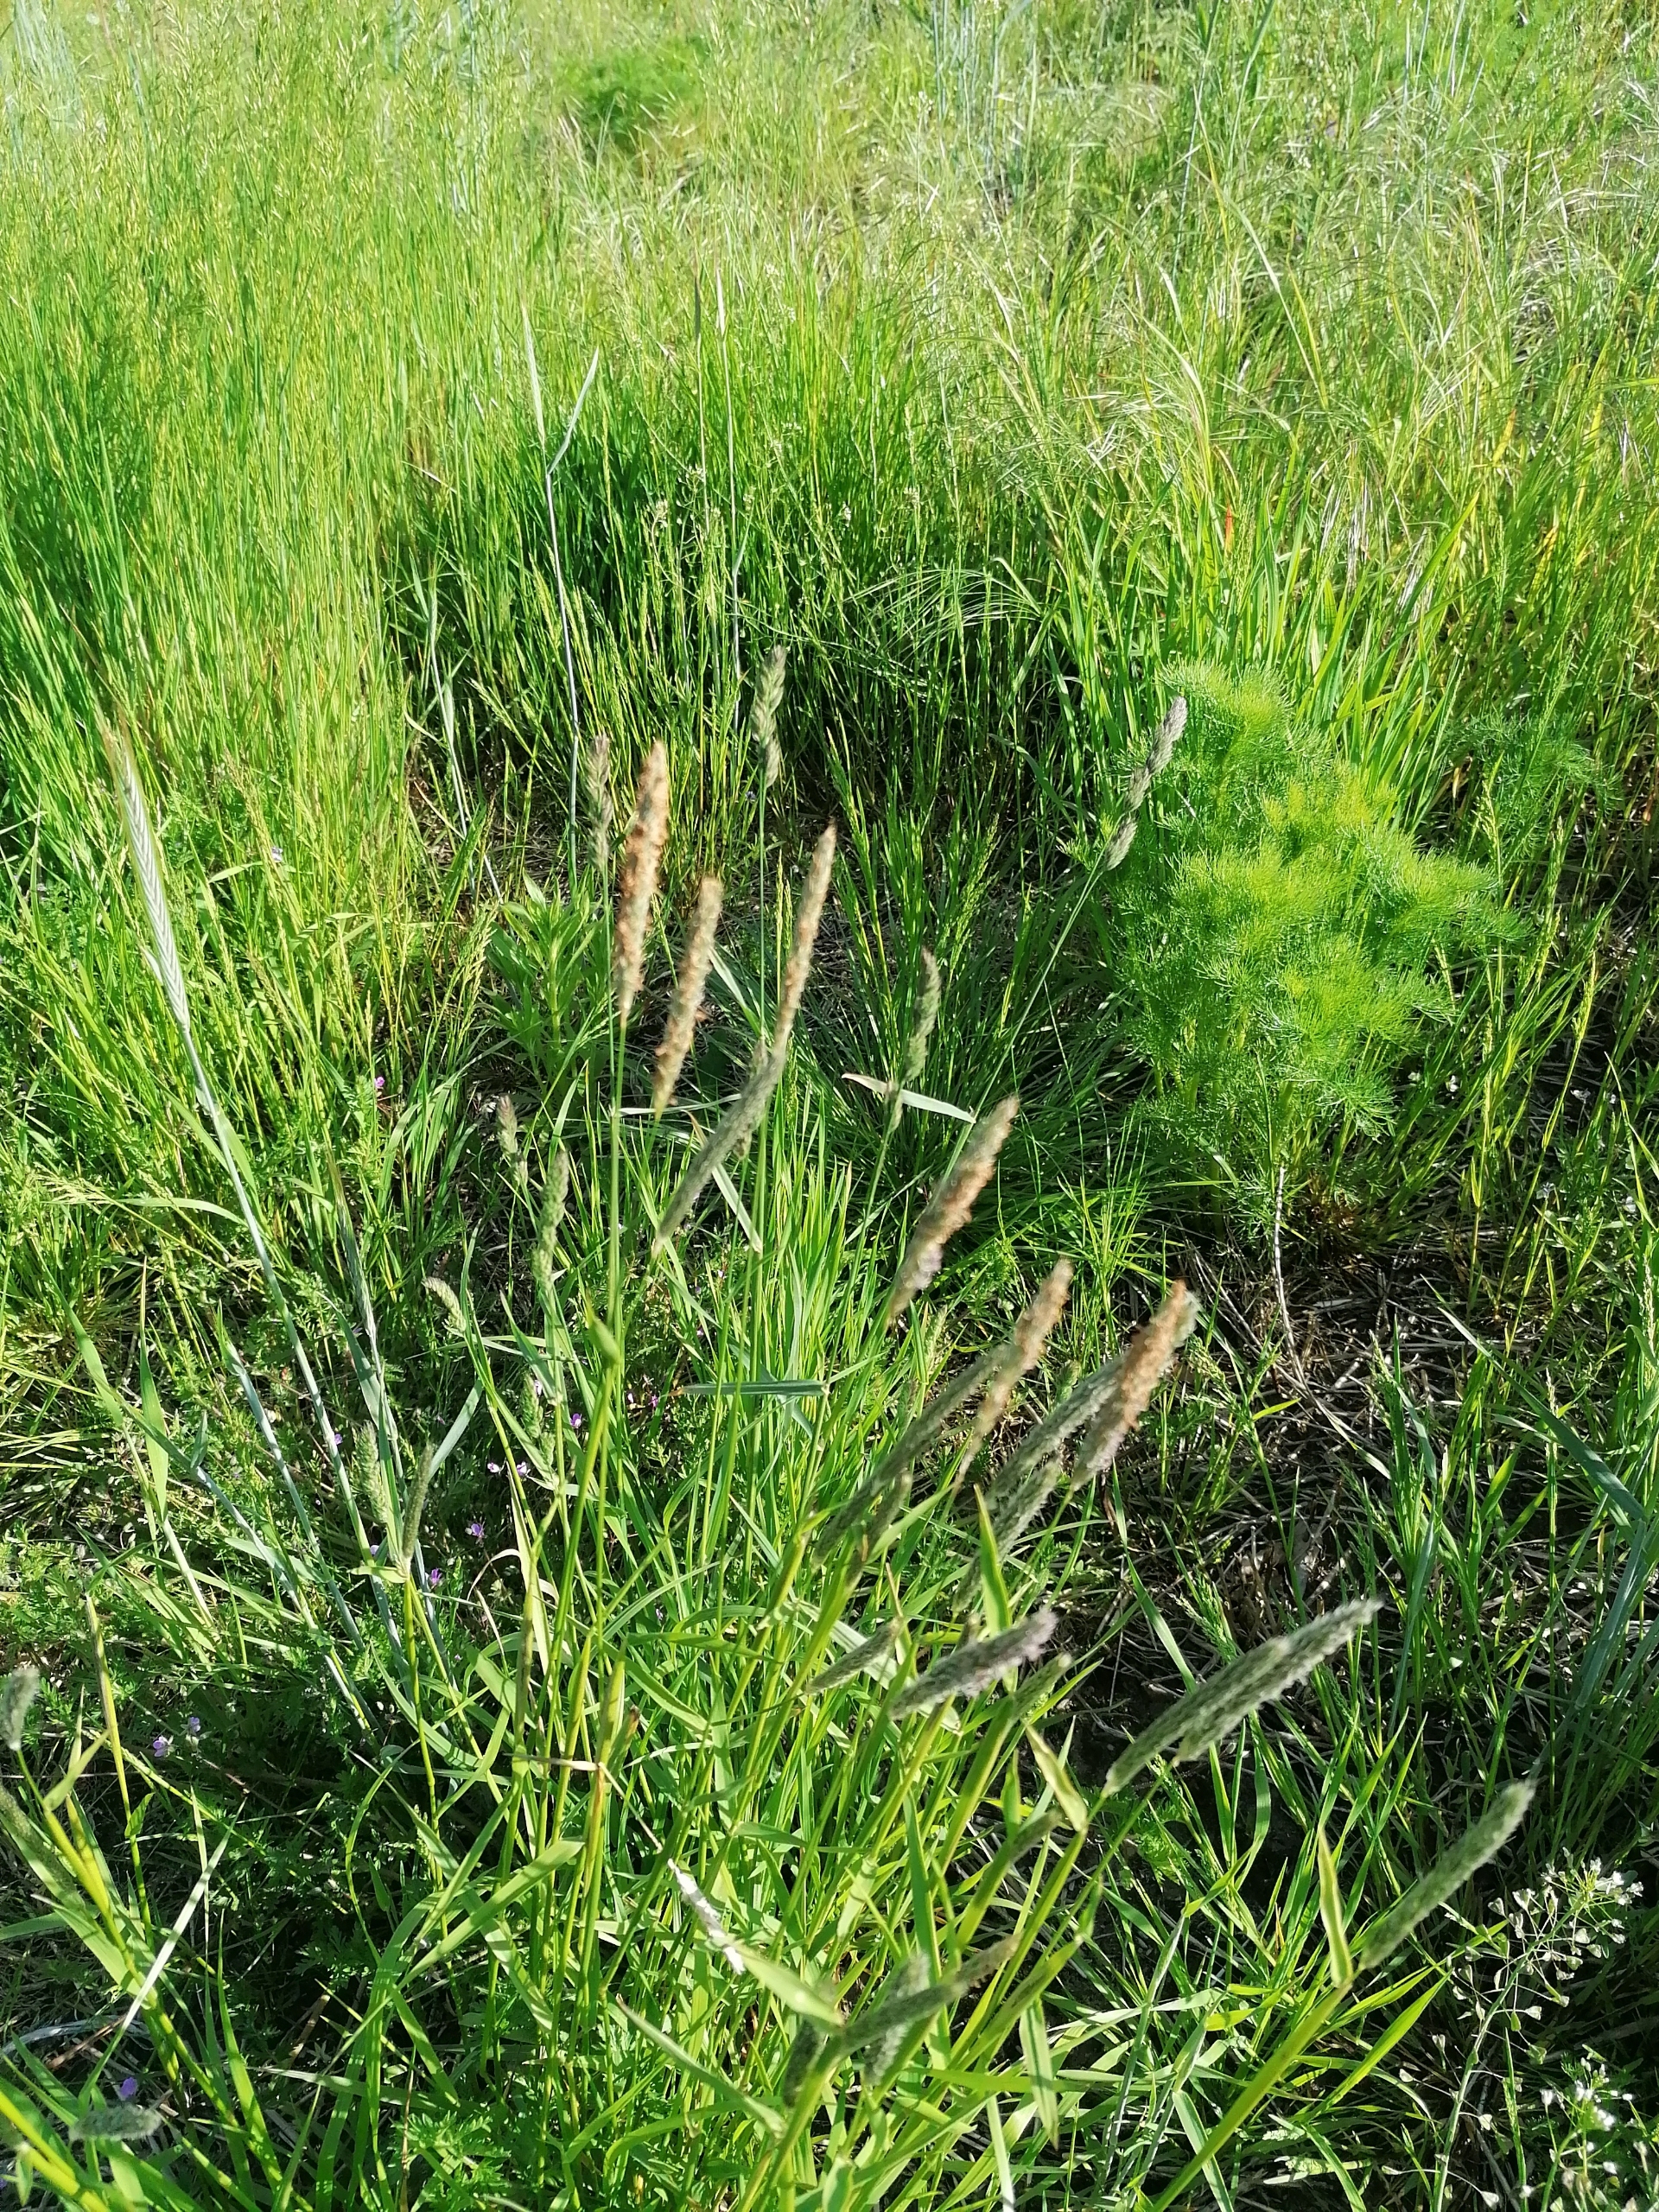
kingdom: Plantae
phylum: Tracheophyta
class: Liliopsida
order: Poales
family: Poaceae
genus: Alopecurus
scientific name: Alopecurus pratensis
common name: Eng-rævehale
